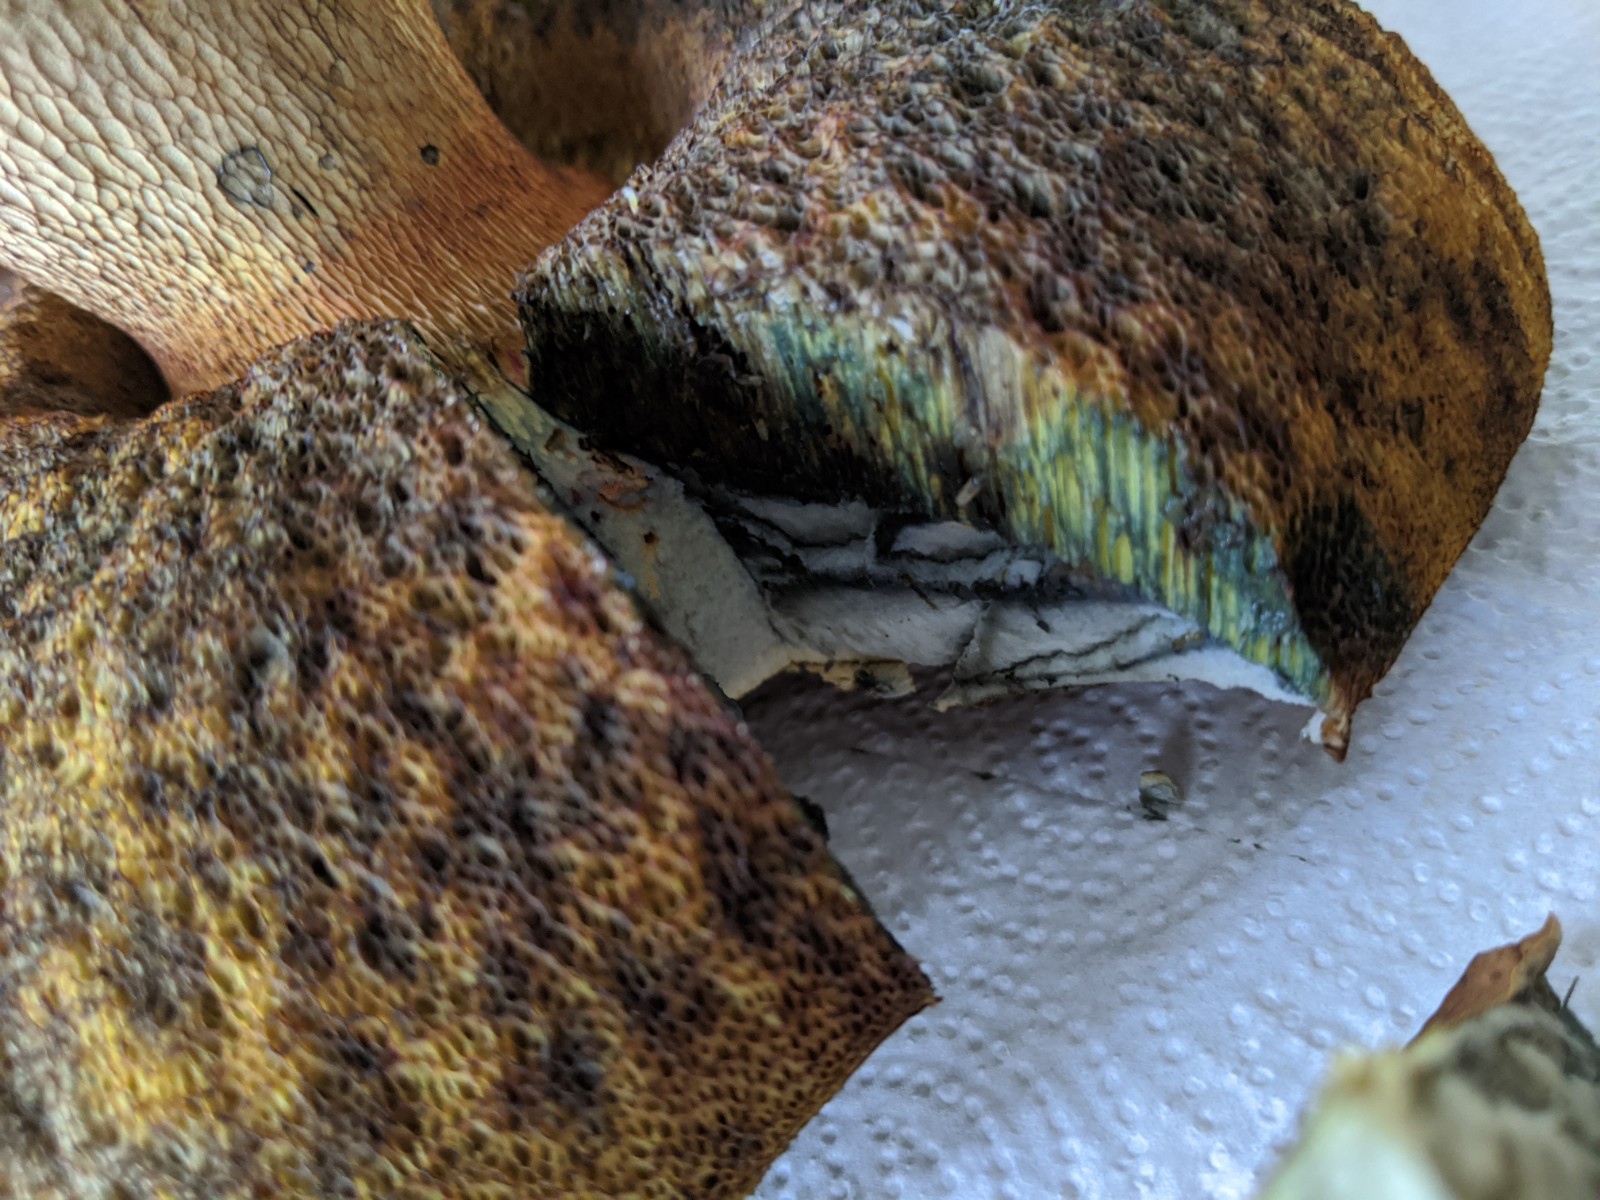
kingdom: Fungi
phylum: Basidiomycota
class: Agaricomycetes
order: Boletales
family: Boletaceae
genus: Suillellus
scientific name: Suillellus luridus
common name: netstokket indigorørhat
